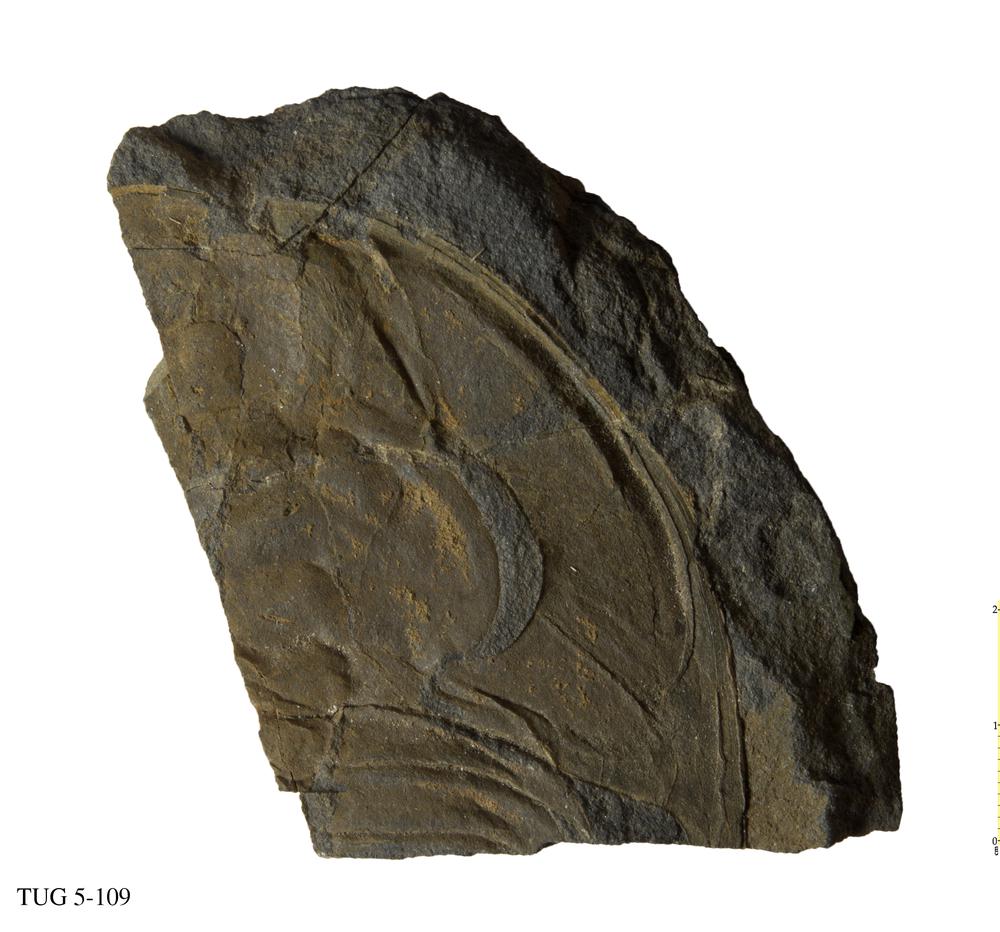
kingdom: Animalia
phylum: Arthropoda
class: Trilobita
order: Redlichiida
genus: Elliptocephala
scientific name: Elliptocephala asaphoides
